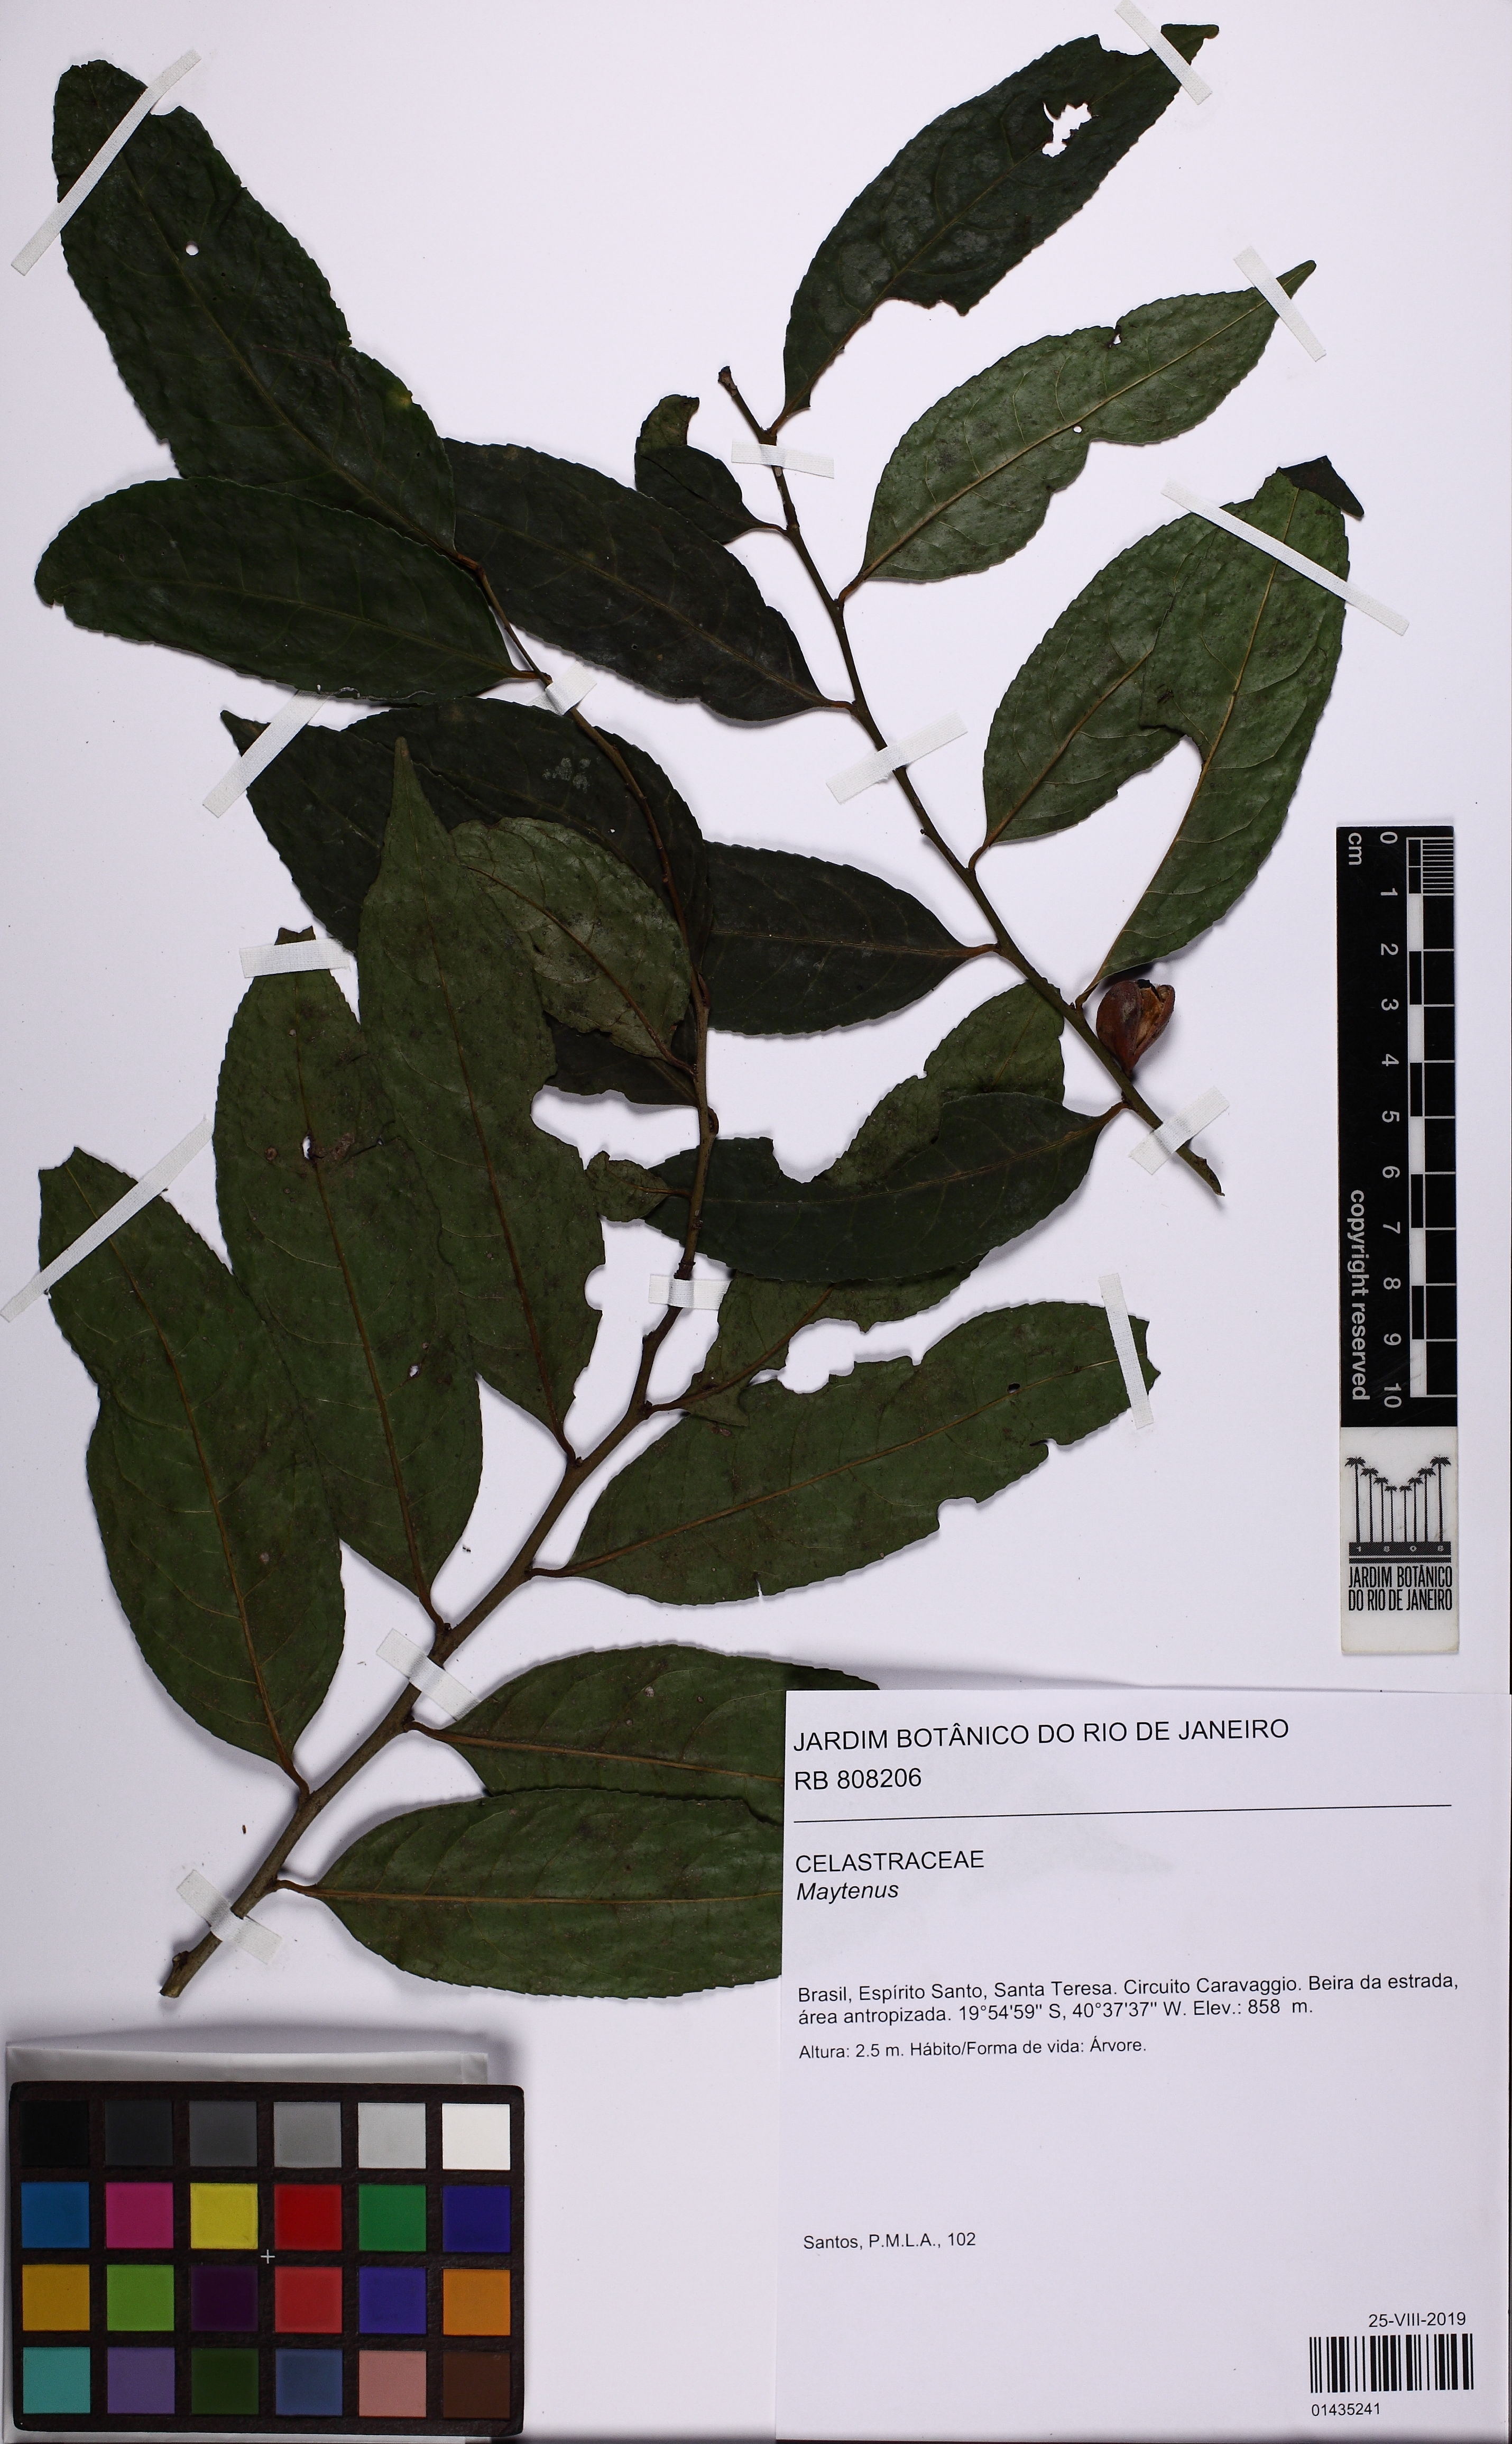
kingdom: Plantae
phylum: Tracheophyta
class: Magnoliopsida
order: Celastrales
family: Celastraceae
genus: Maytenus
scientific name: Maytenus
